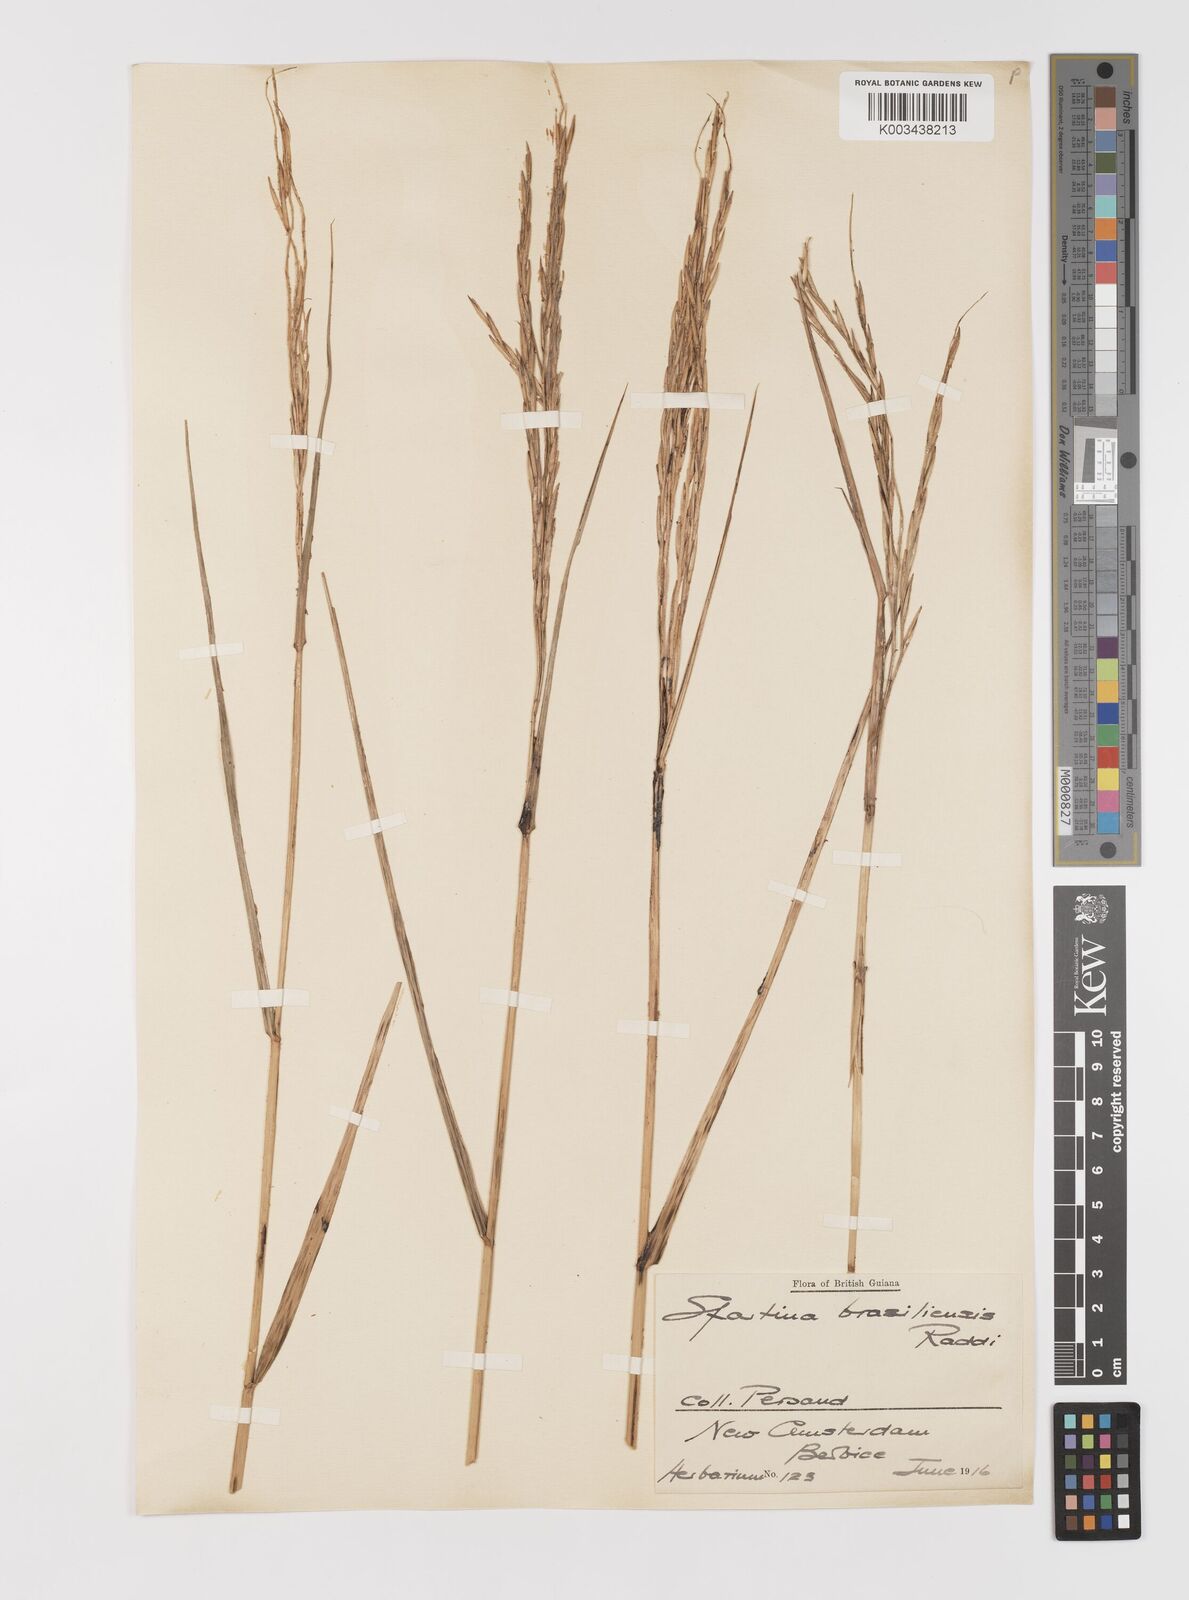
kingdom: Plantae
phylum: Tracheophyta
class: Liliopsida
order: Poales
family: Poaceae
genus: Sporobolus
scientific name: Sporobolus alterniflorus
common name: Atlantic cordgrass
